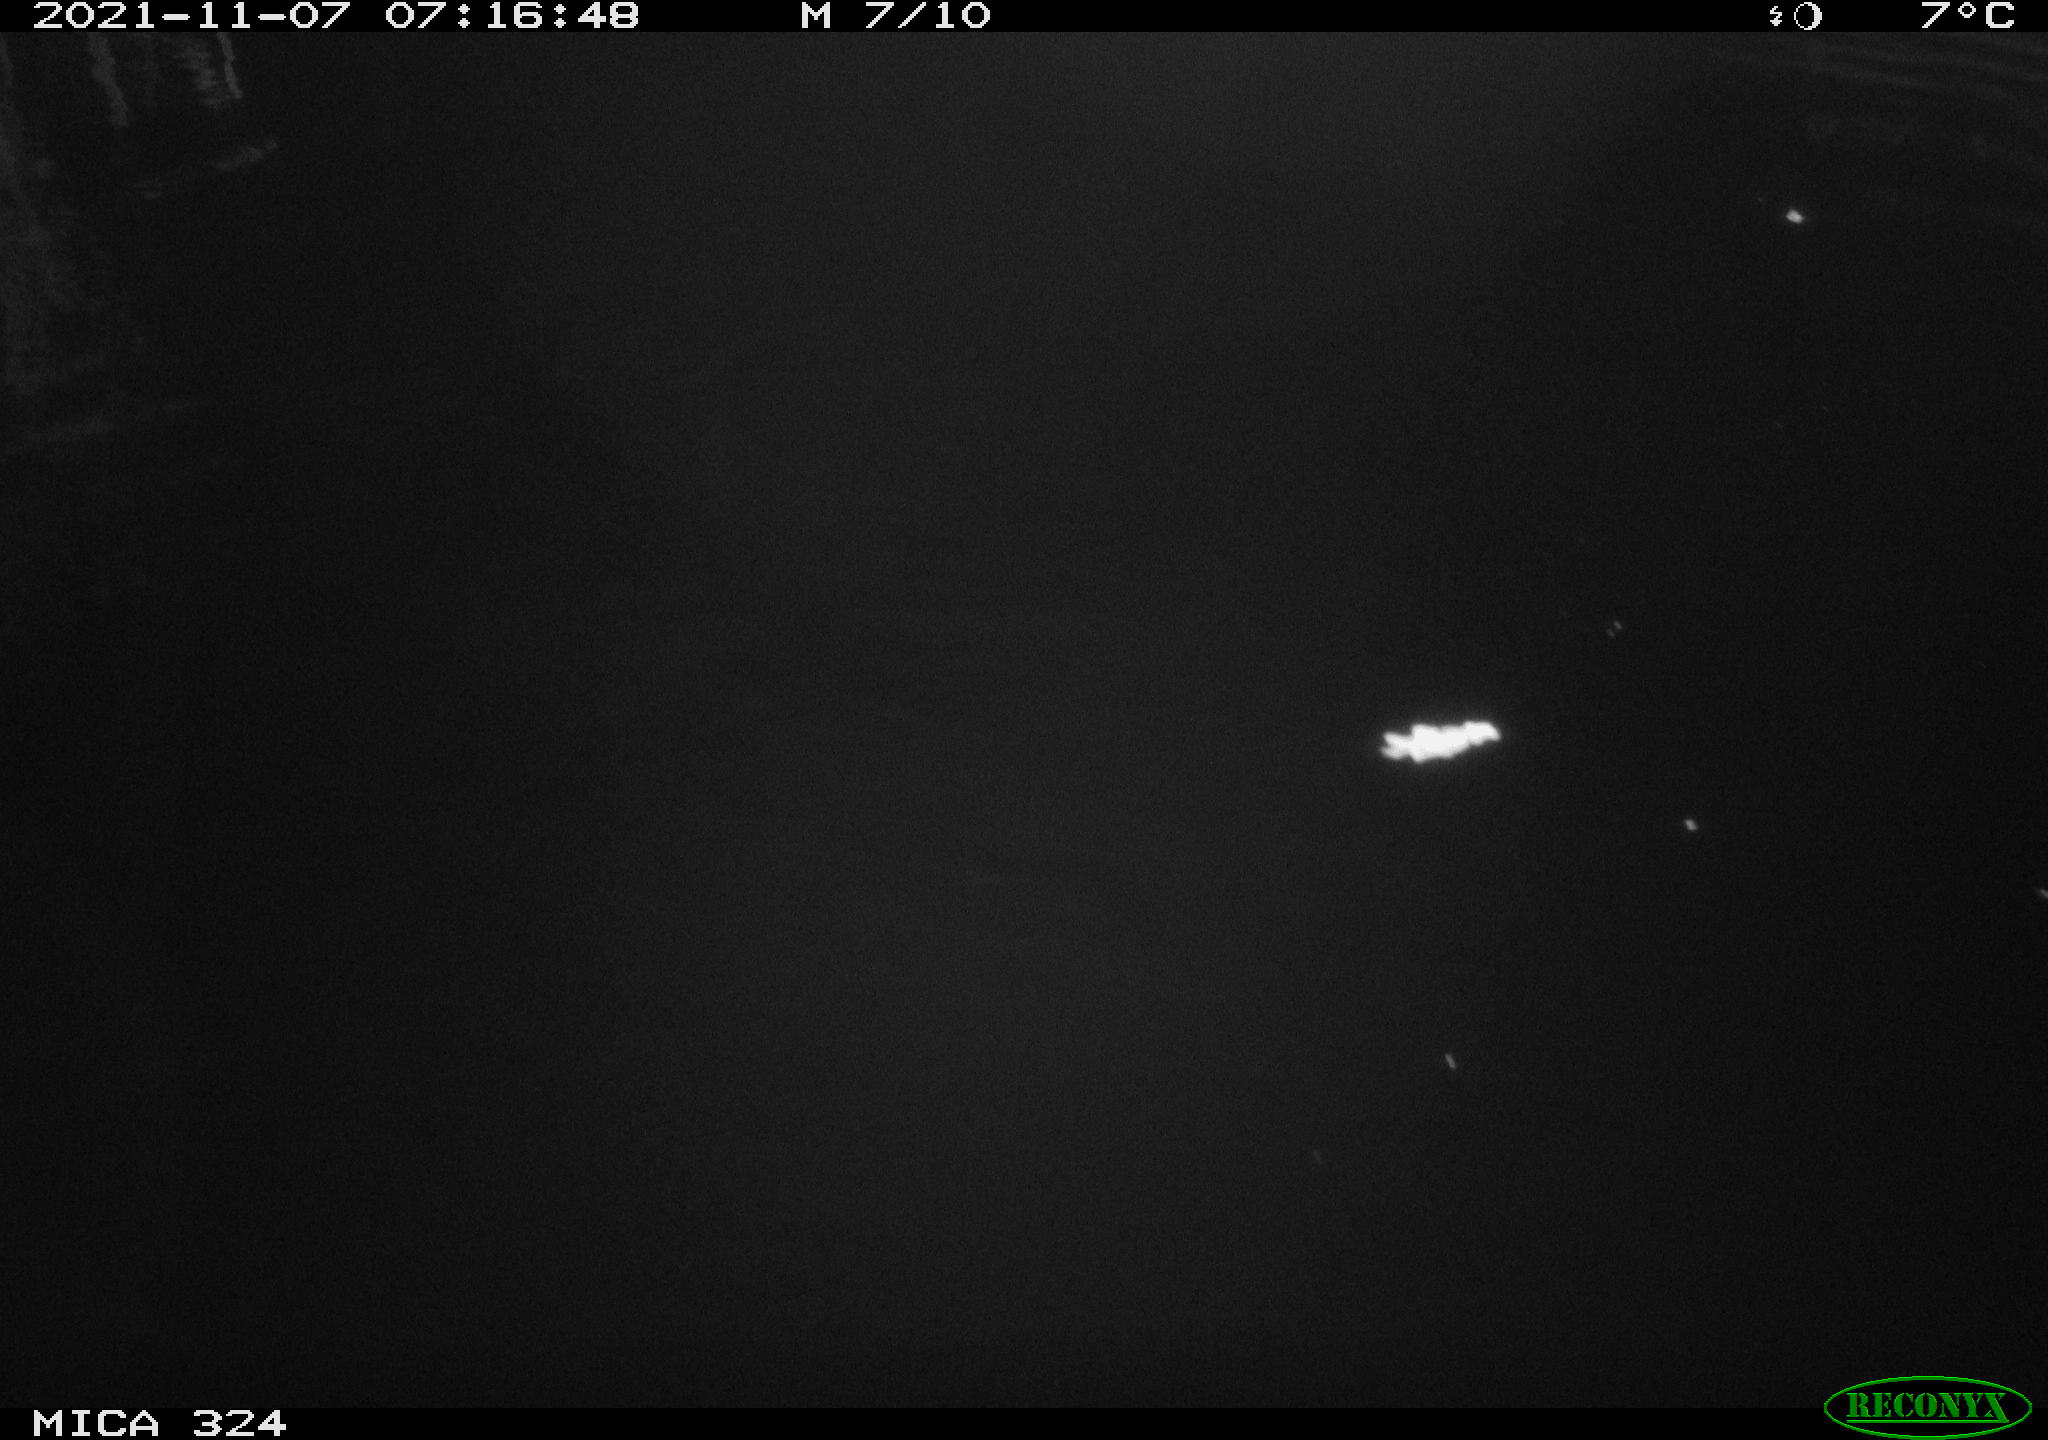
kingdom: Animalia
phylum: Chordata
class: Mammalia
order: Rodentia
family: Cricetidae
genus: Ondatra
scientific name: Ondatra zibethicus
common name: Muskrat
